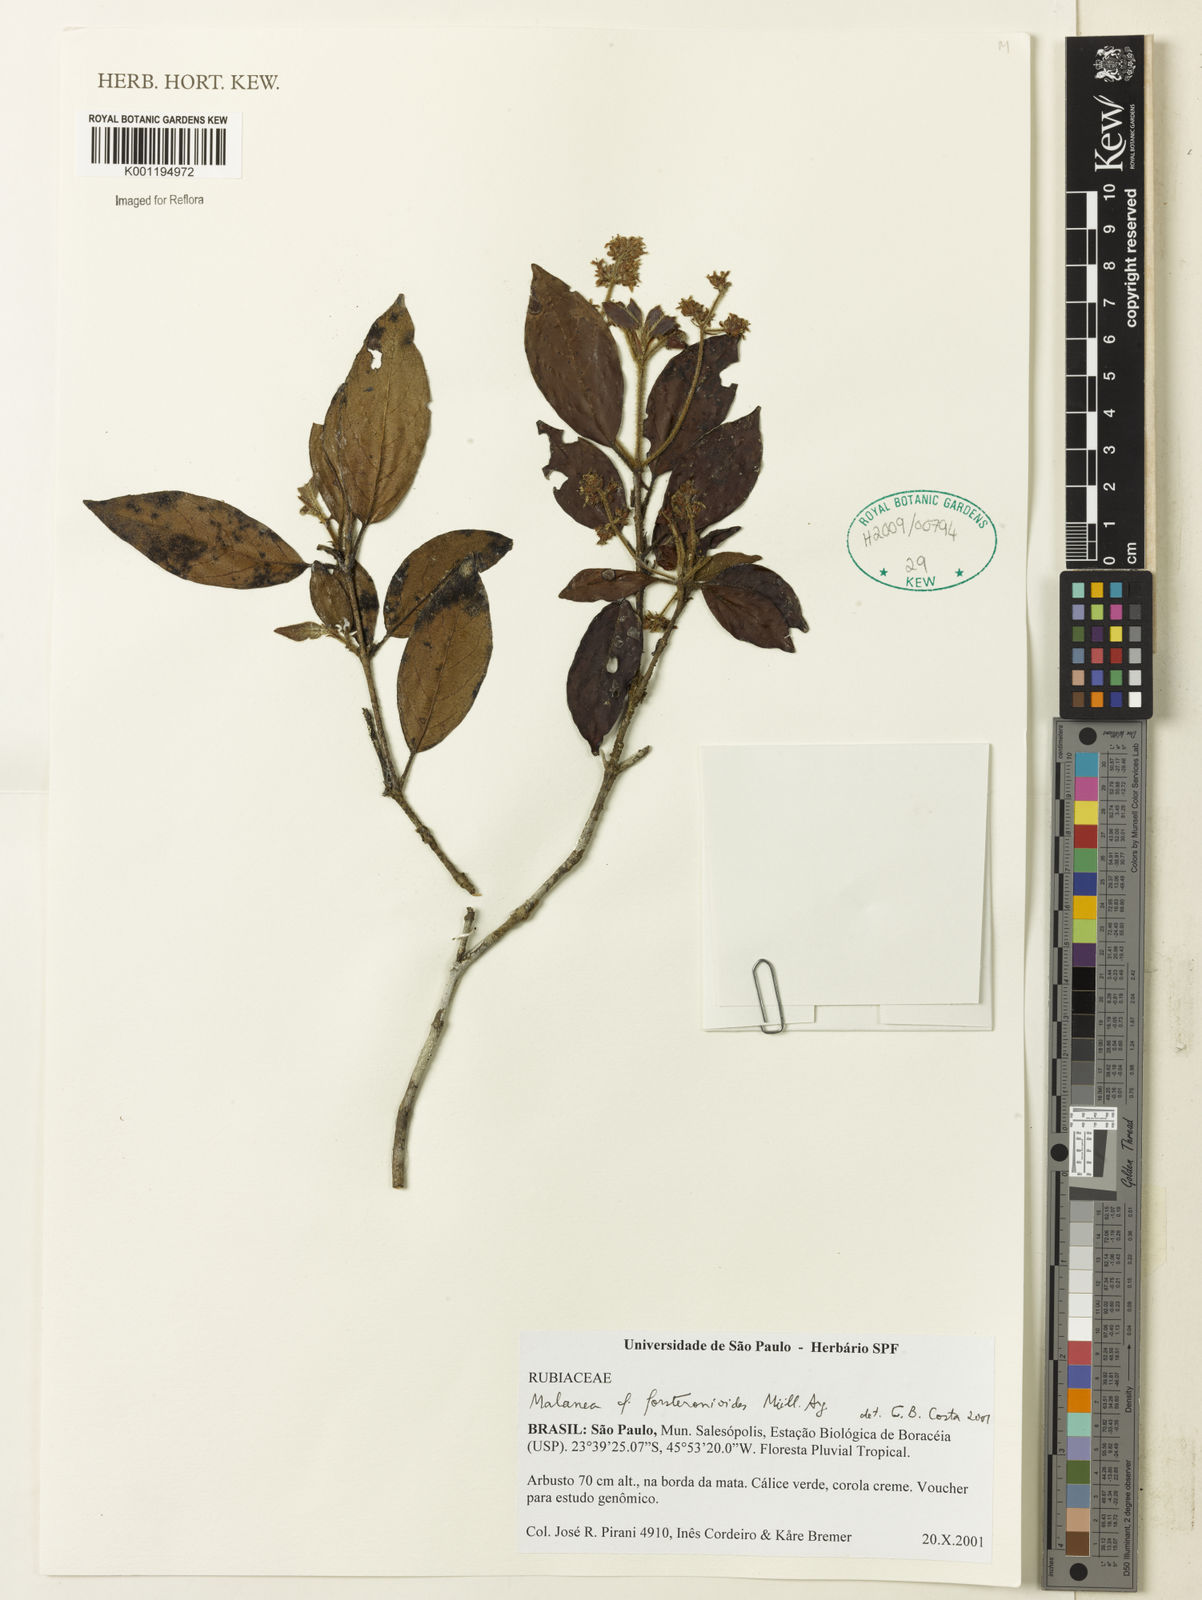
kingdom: Plantae
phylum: Tracheophyta
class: Magnoliopsida
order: Gentianales
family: Rubiaceae
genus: Malanea
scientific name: Malanea
